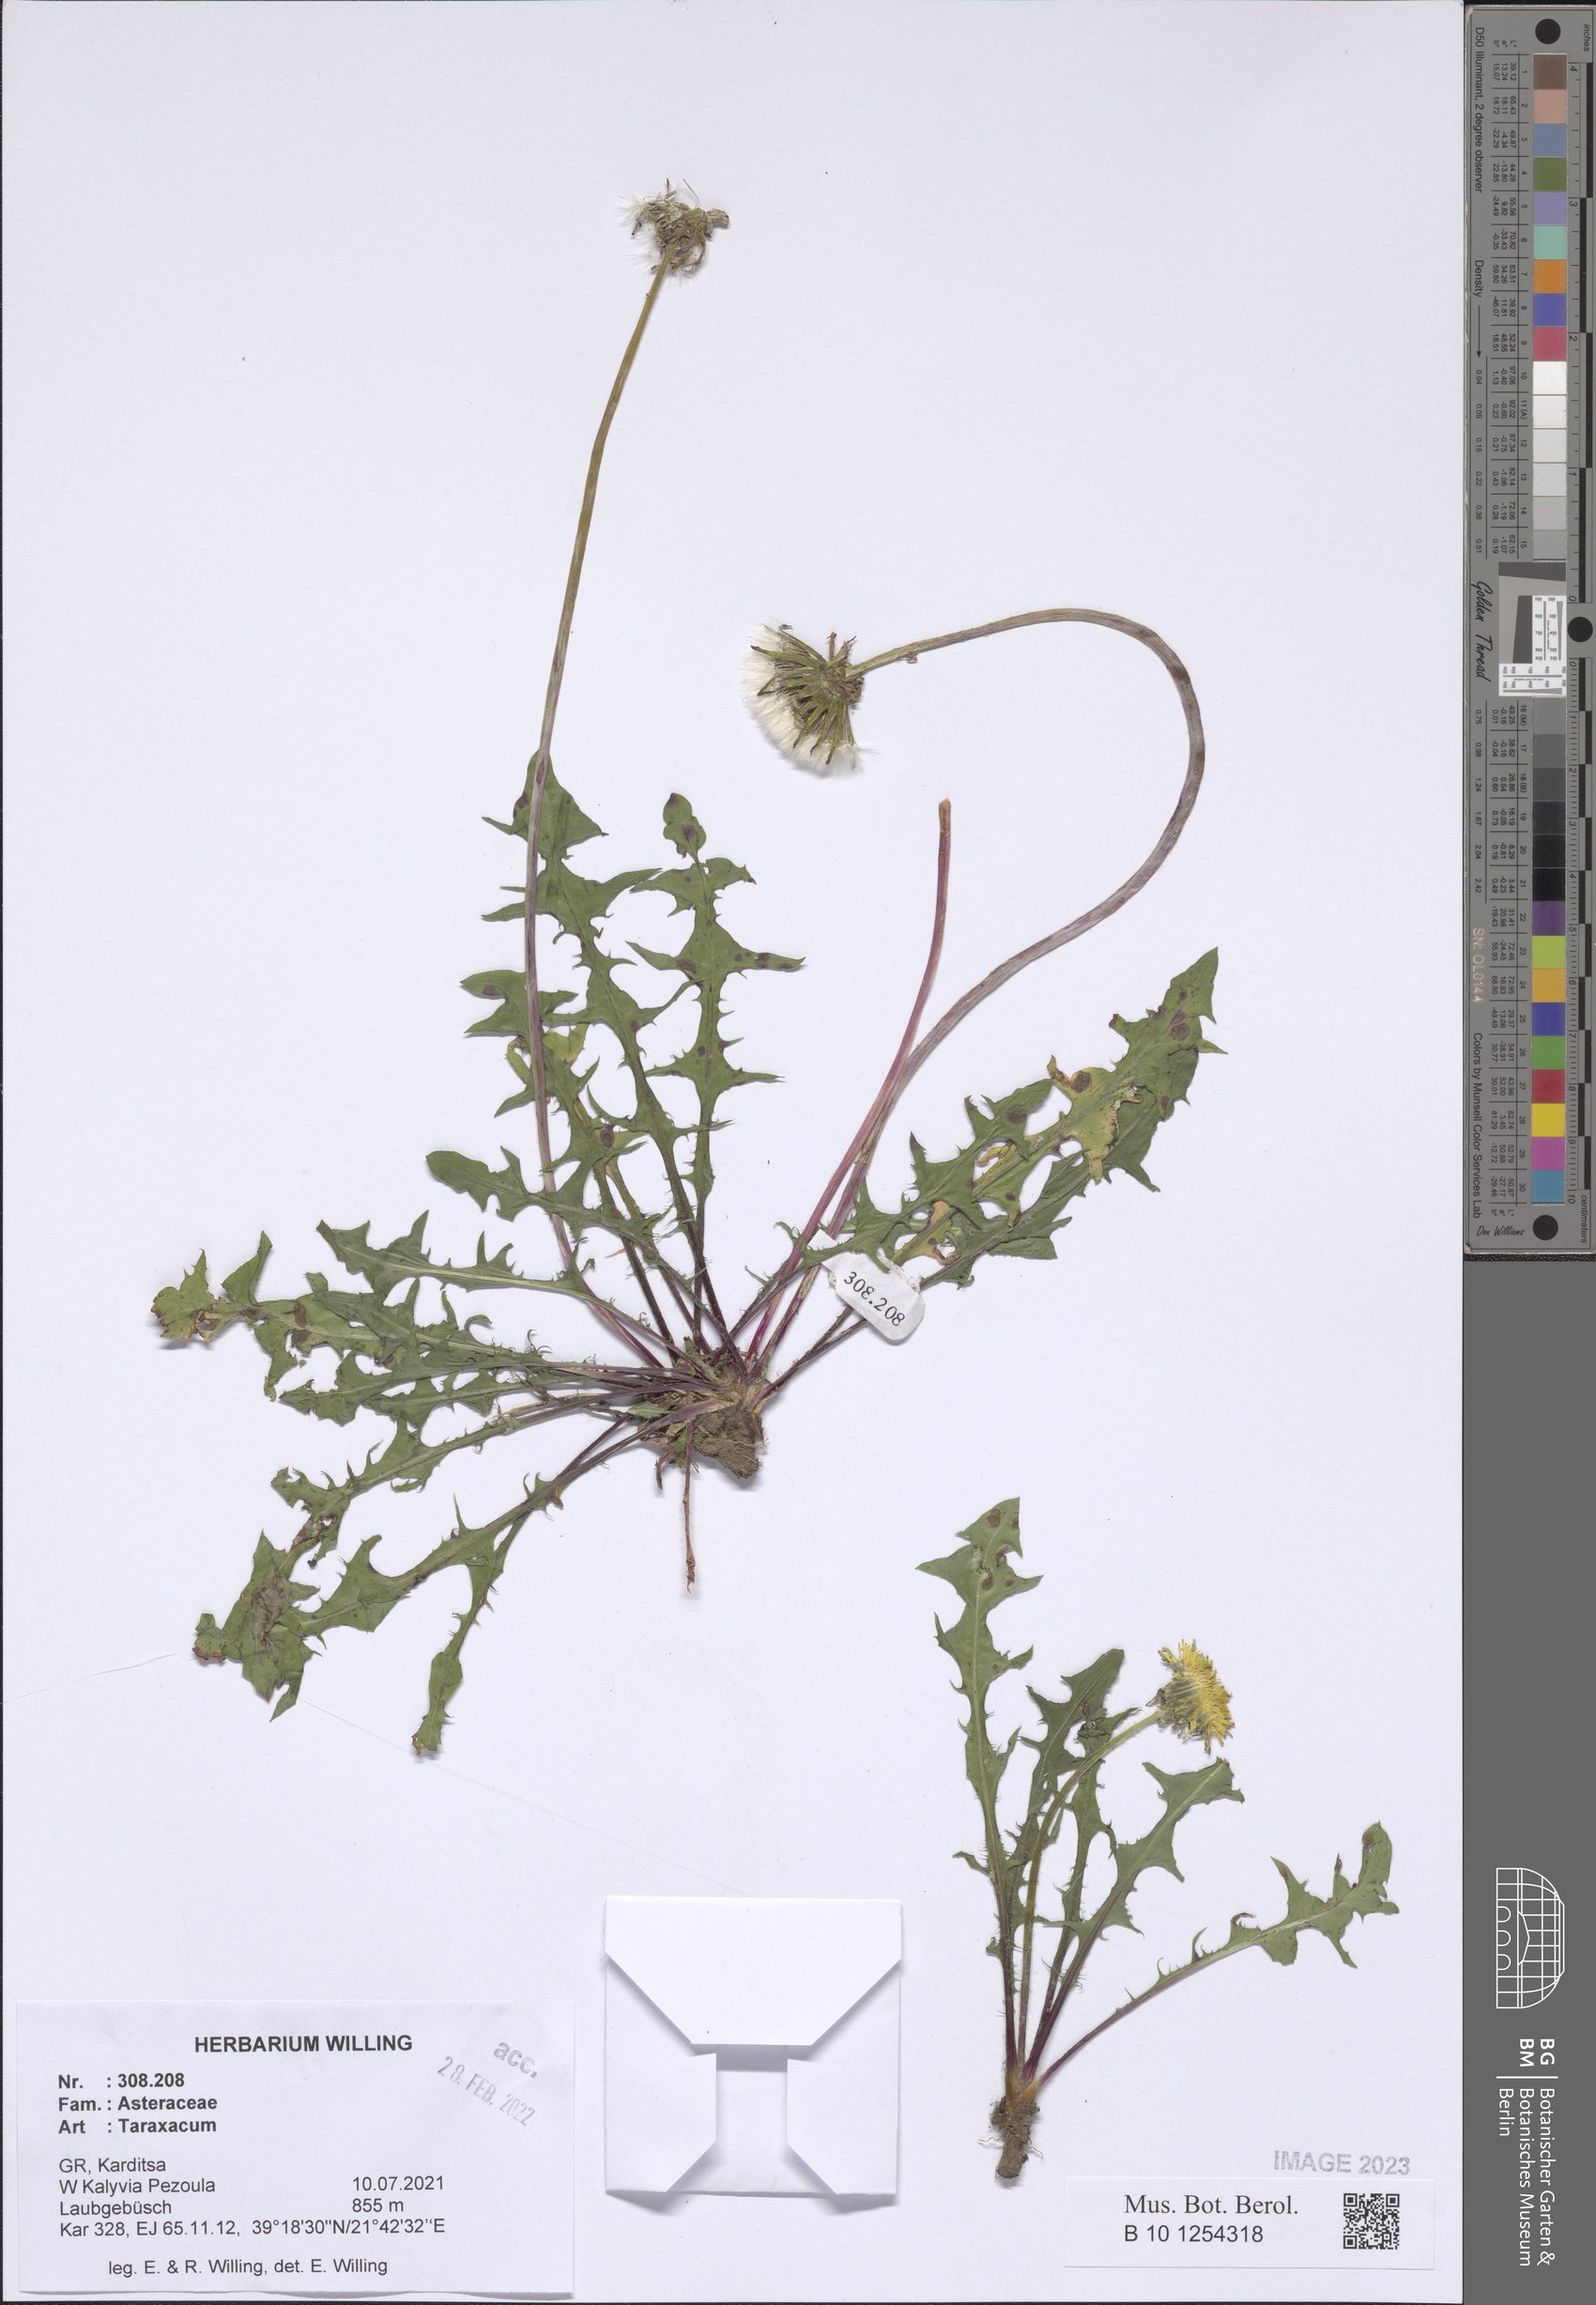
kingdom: Plantae
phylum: Tracheophyta
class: Magnoliopsida
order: Asterales
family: Asteraceae
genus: Taraxacum
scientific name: Taraxacum
